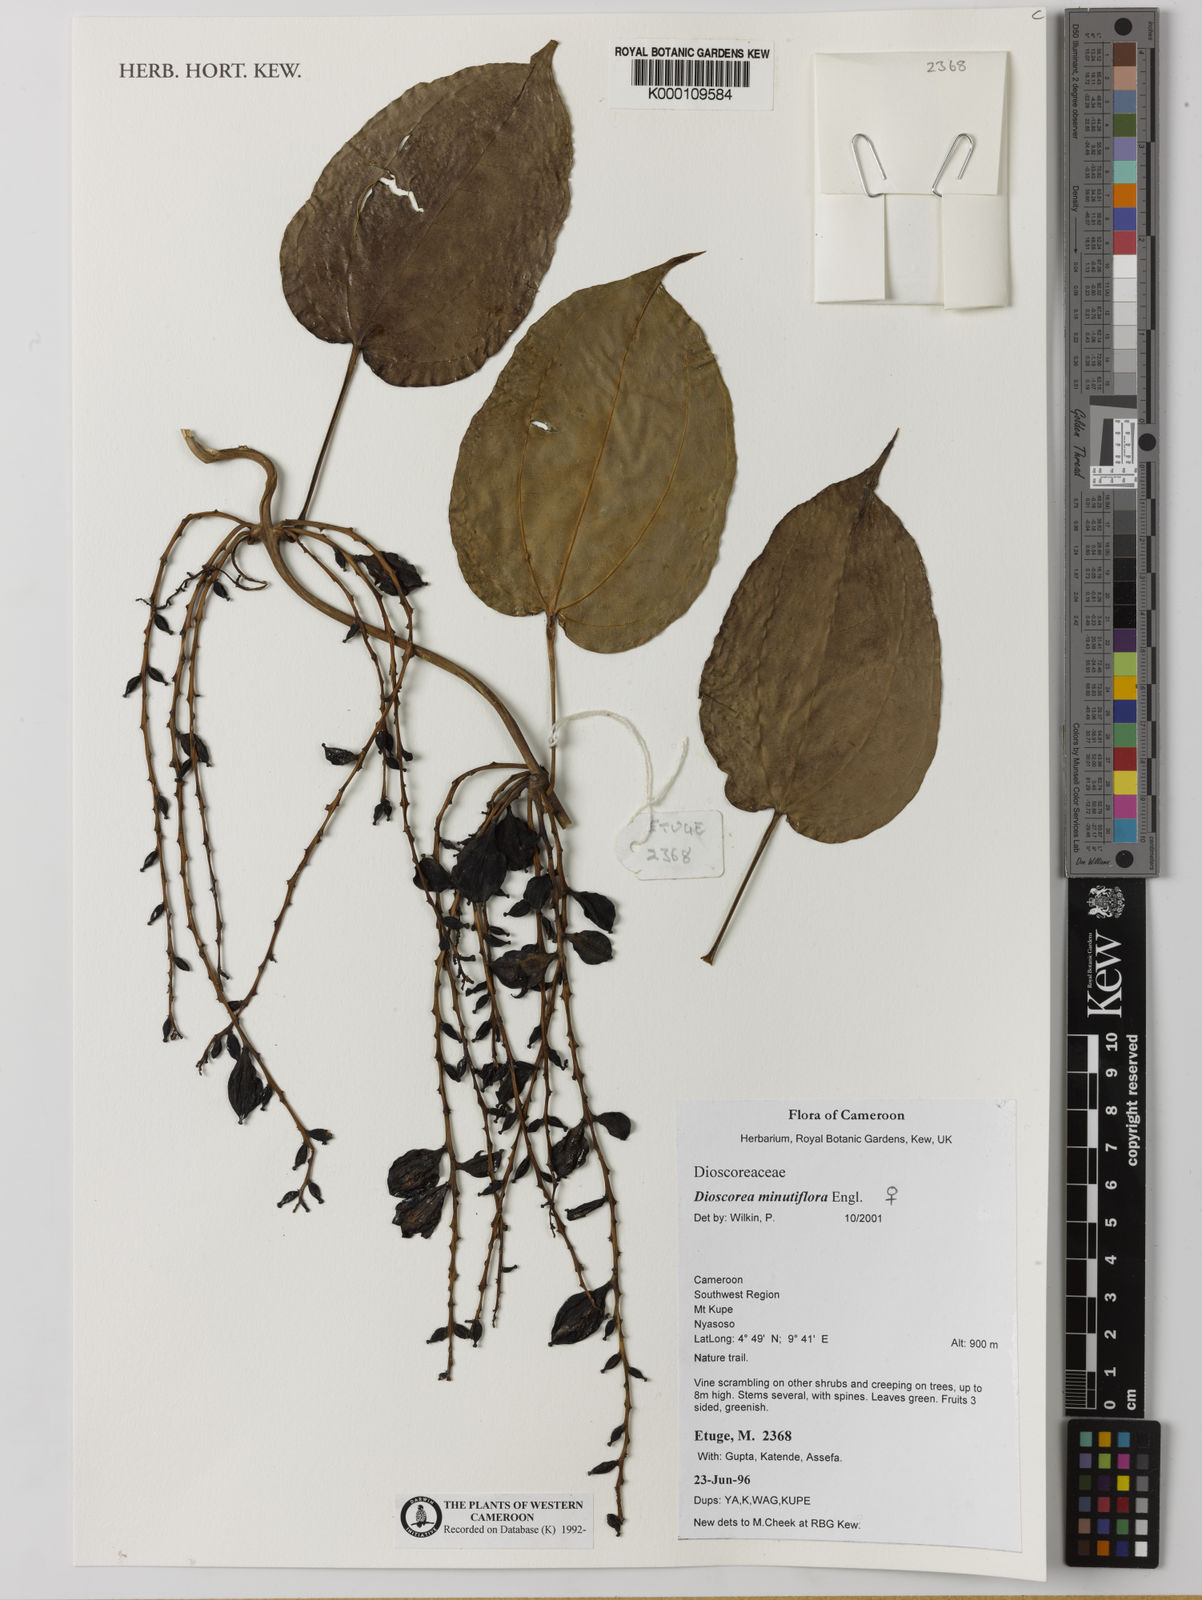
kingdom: Plantae
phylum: Tracheophyta
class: Liliopsida
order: Dioscoreales
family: Dioscoreaceae
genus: Dioscorea
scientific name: Dioscorea minutiflora
